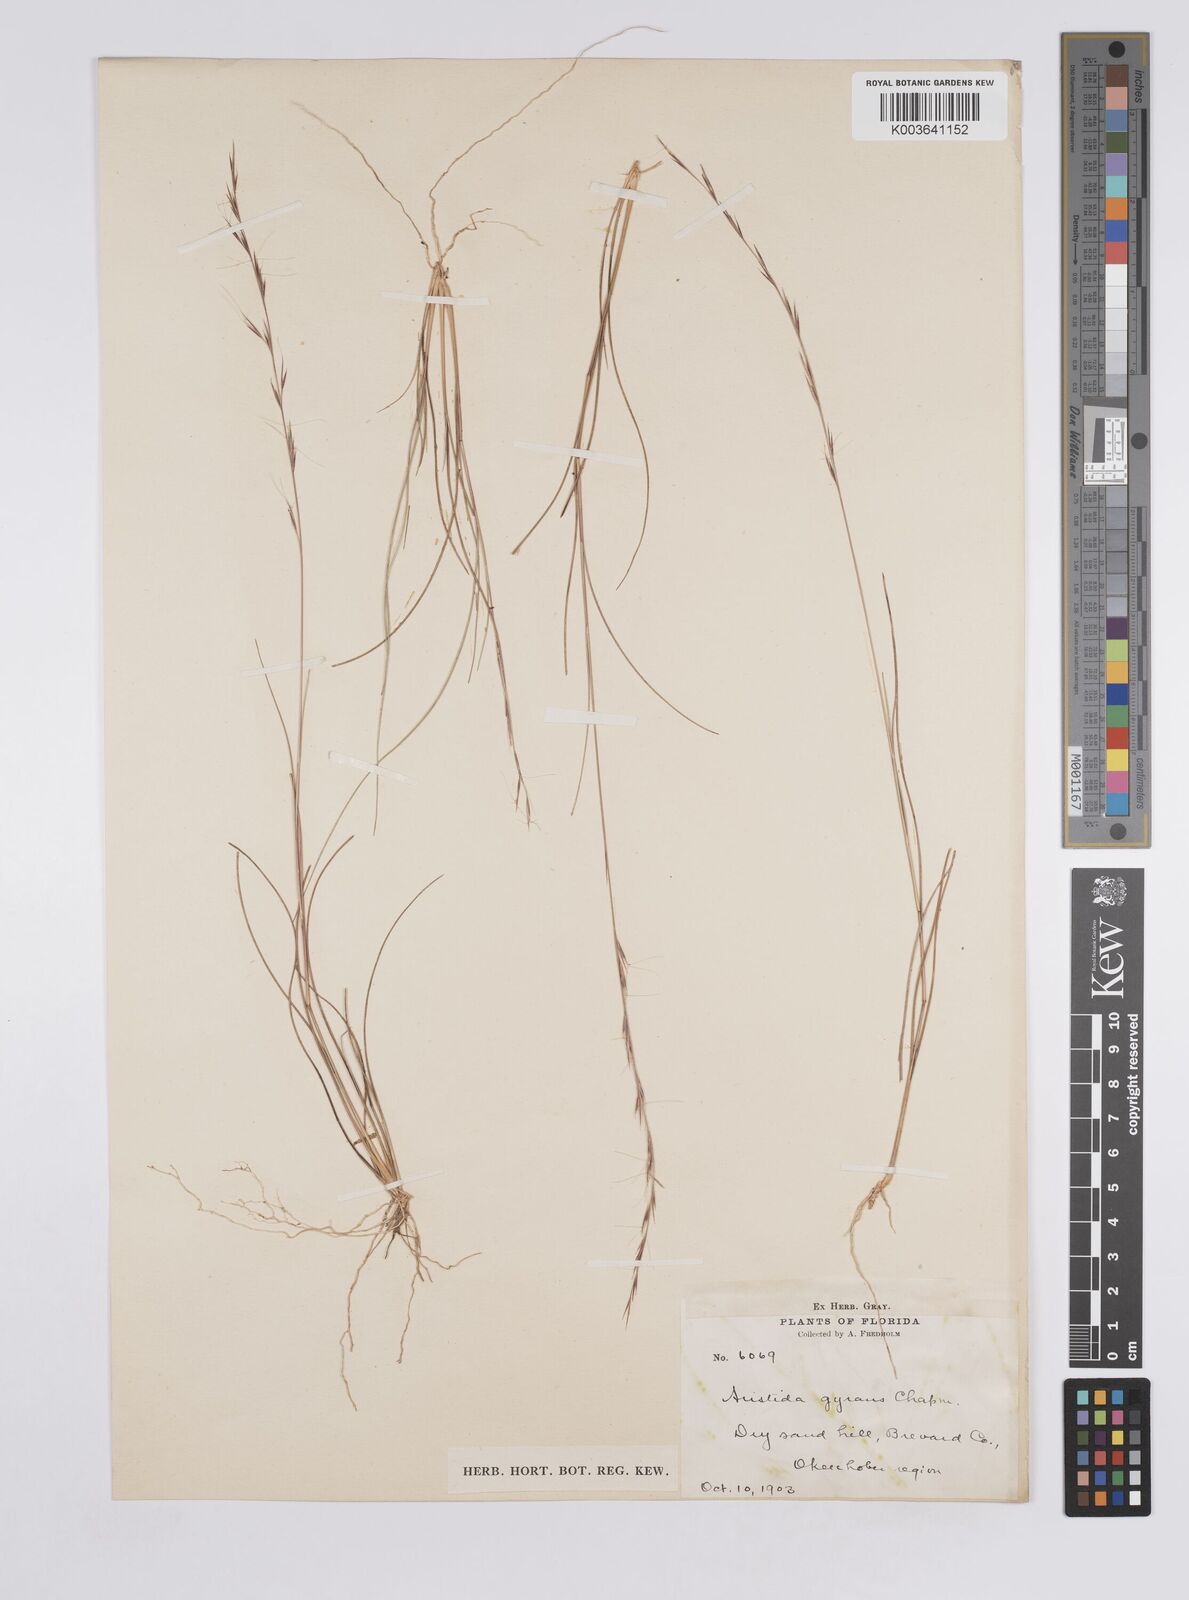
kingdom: Plantae
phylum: Tracheophyta
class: Liliopsida
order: Poales
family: Poaceae
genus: Aristida
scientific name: Aristida gyrans
